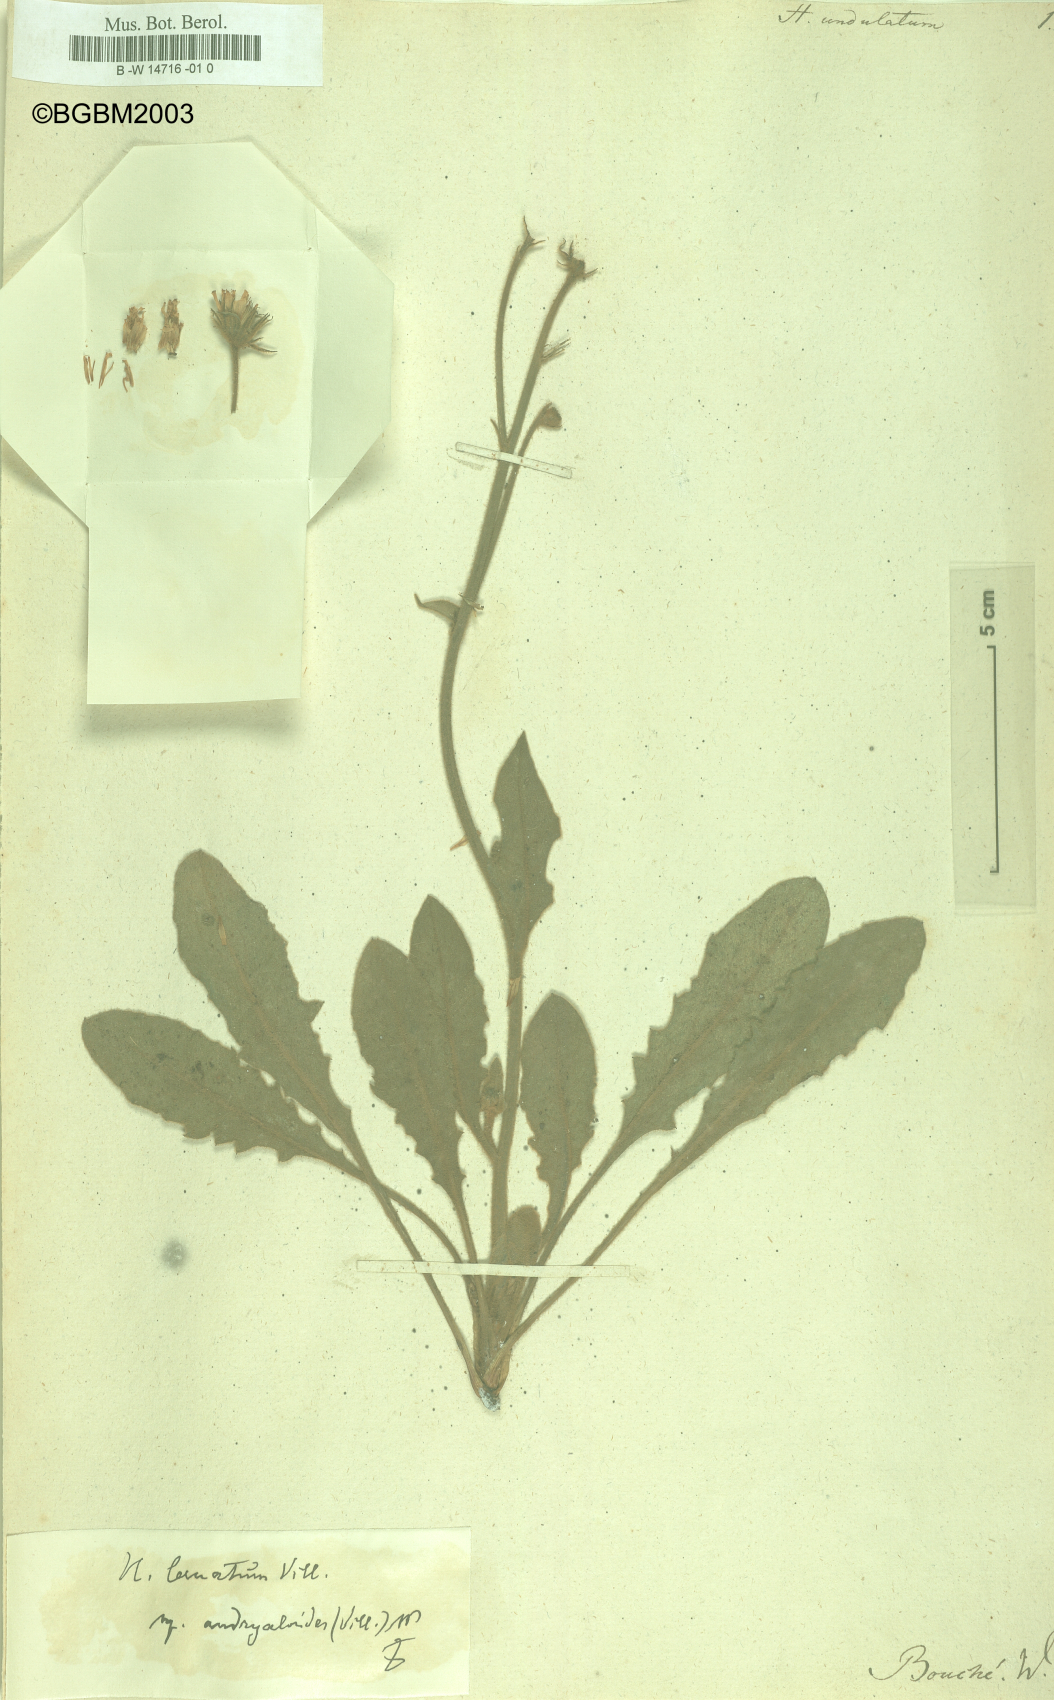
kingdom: Plantae
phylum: Tracheophyta
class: Magnoliopsida
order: Asterales
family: Asteraceae
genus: Hieracium
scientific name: Hieracium naegelianum
